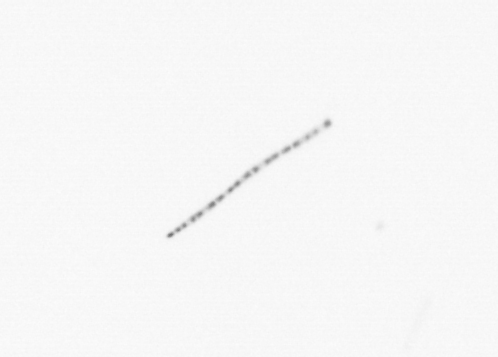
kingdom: Chromista
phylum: Ochrophyta
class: Bacillariophyceae
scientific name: Bacillariophyceae
